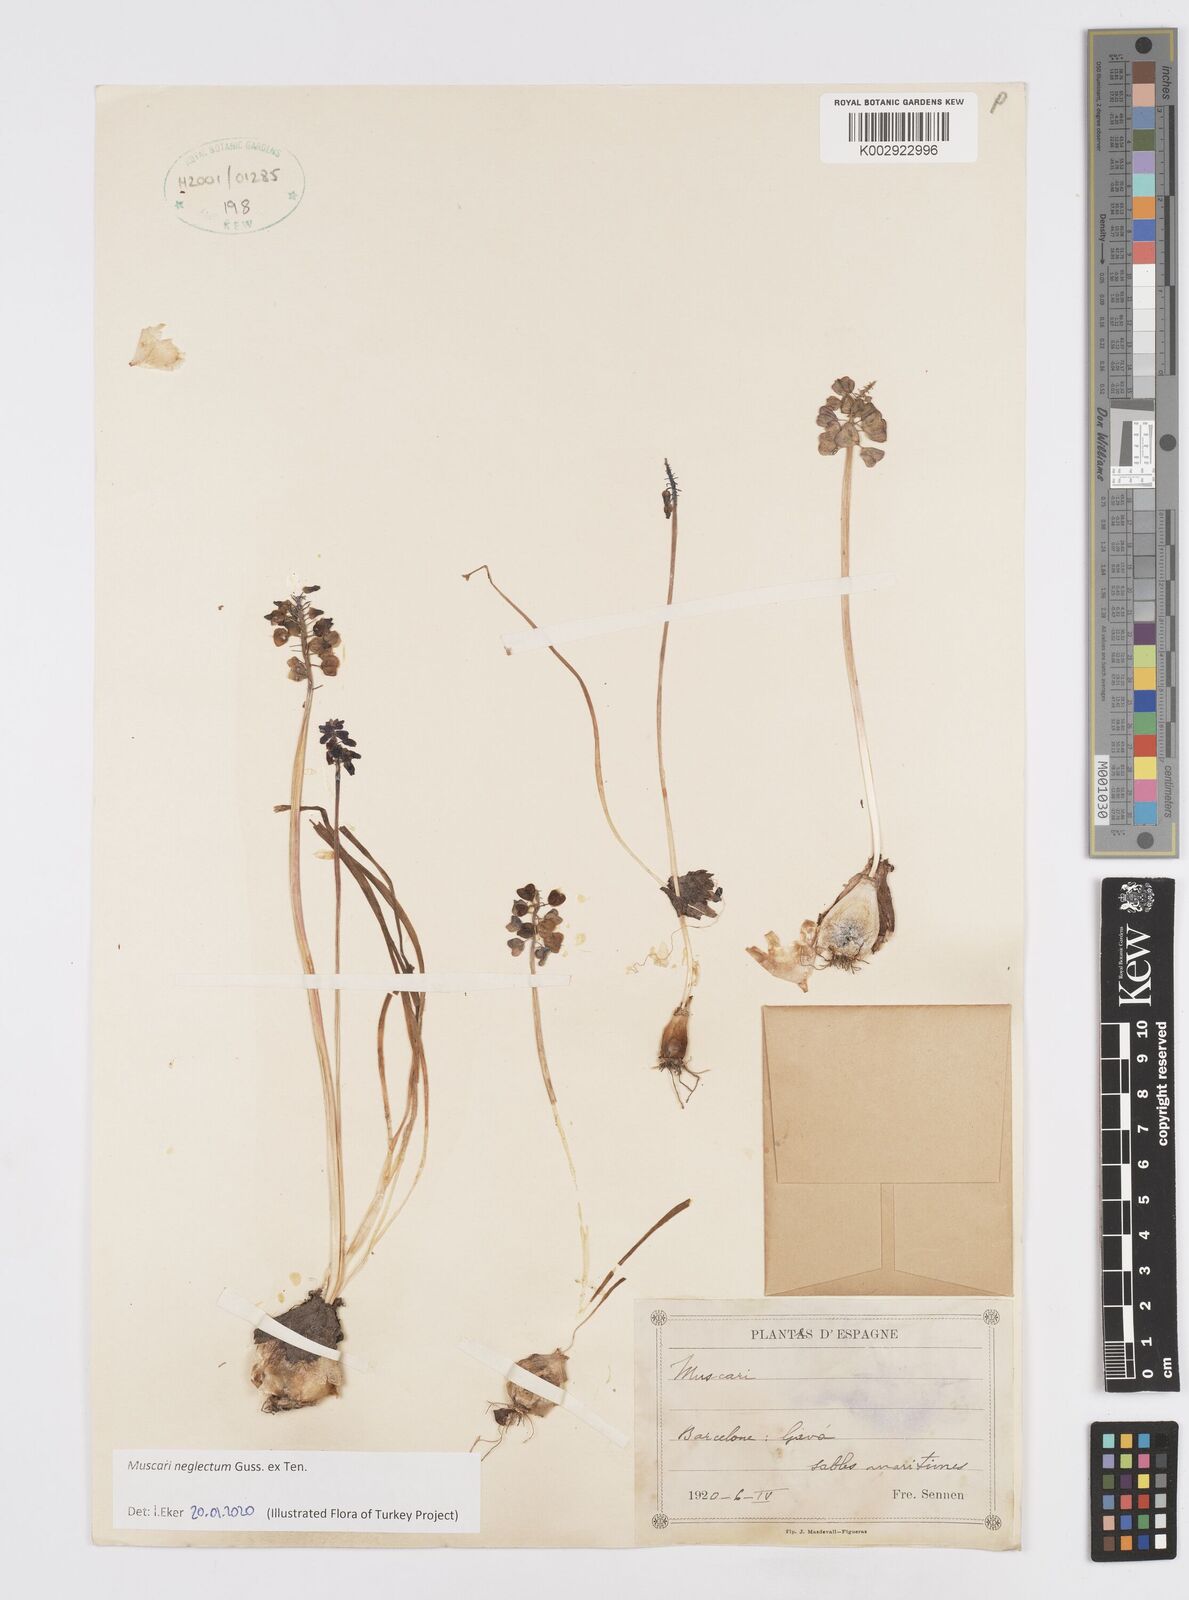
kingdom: Plantae
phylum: Tracheophyta
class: Liliopsida
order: Asparagales
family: Asparagaceae
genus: Muscarimia
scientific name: Muscarimia muscari
